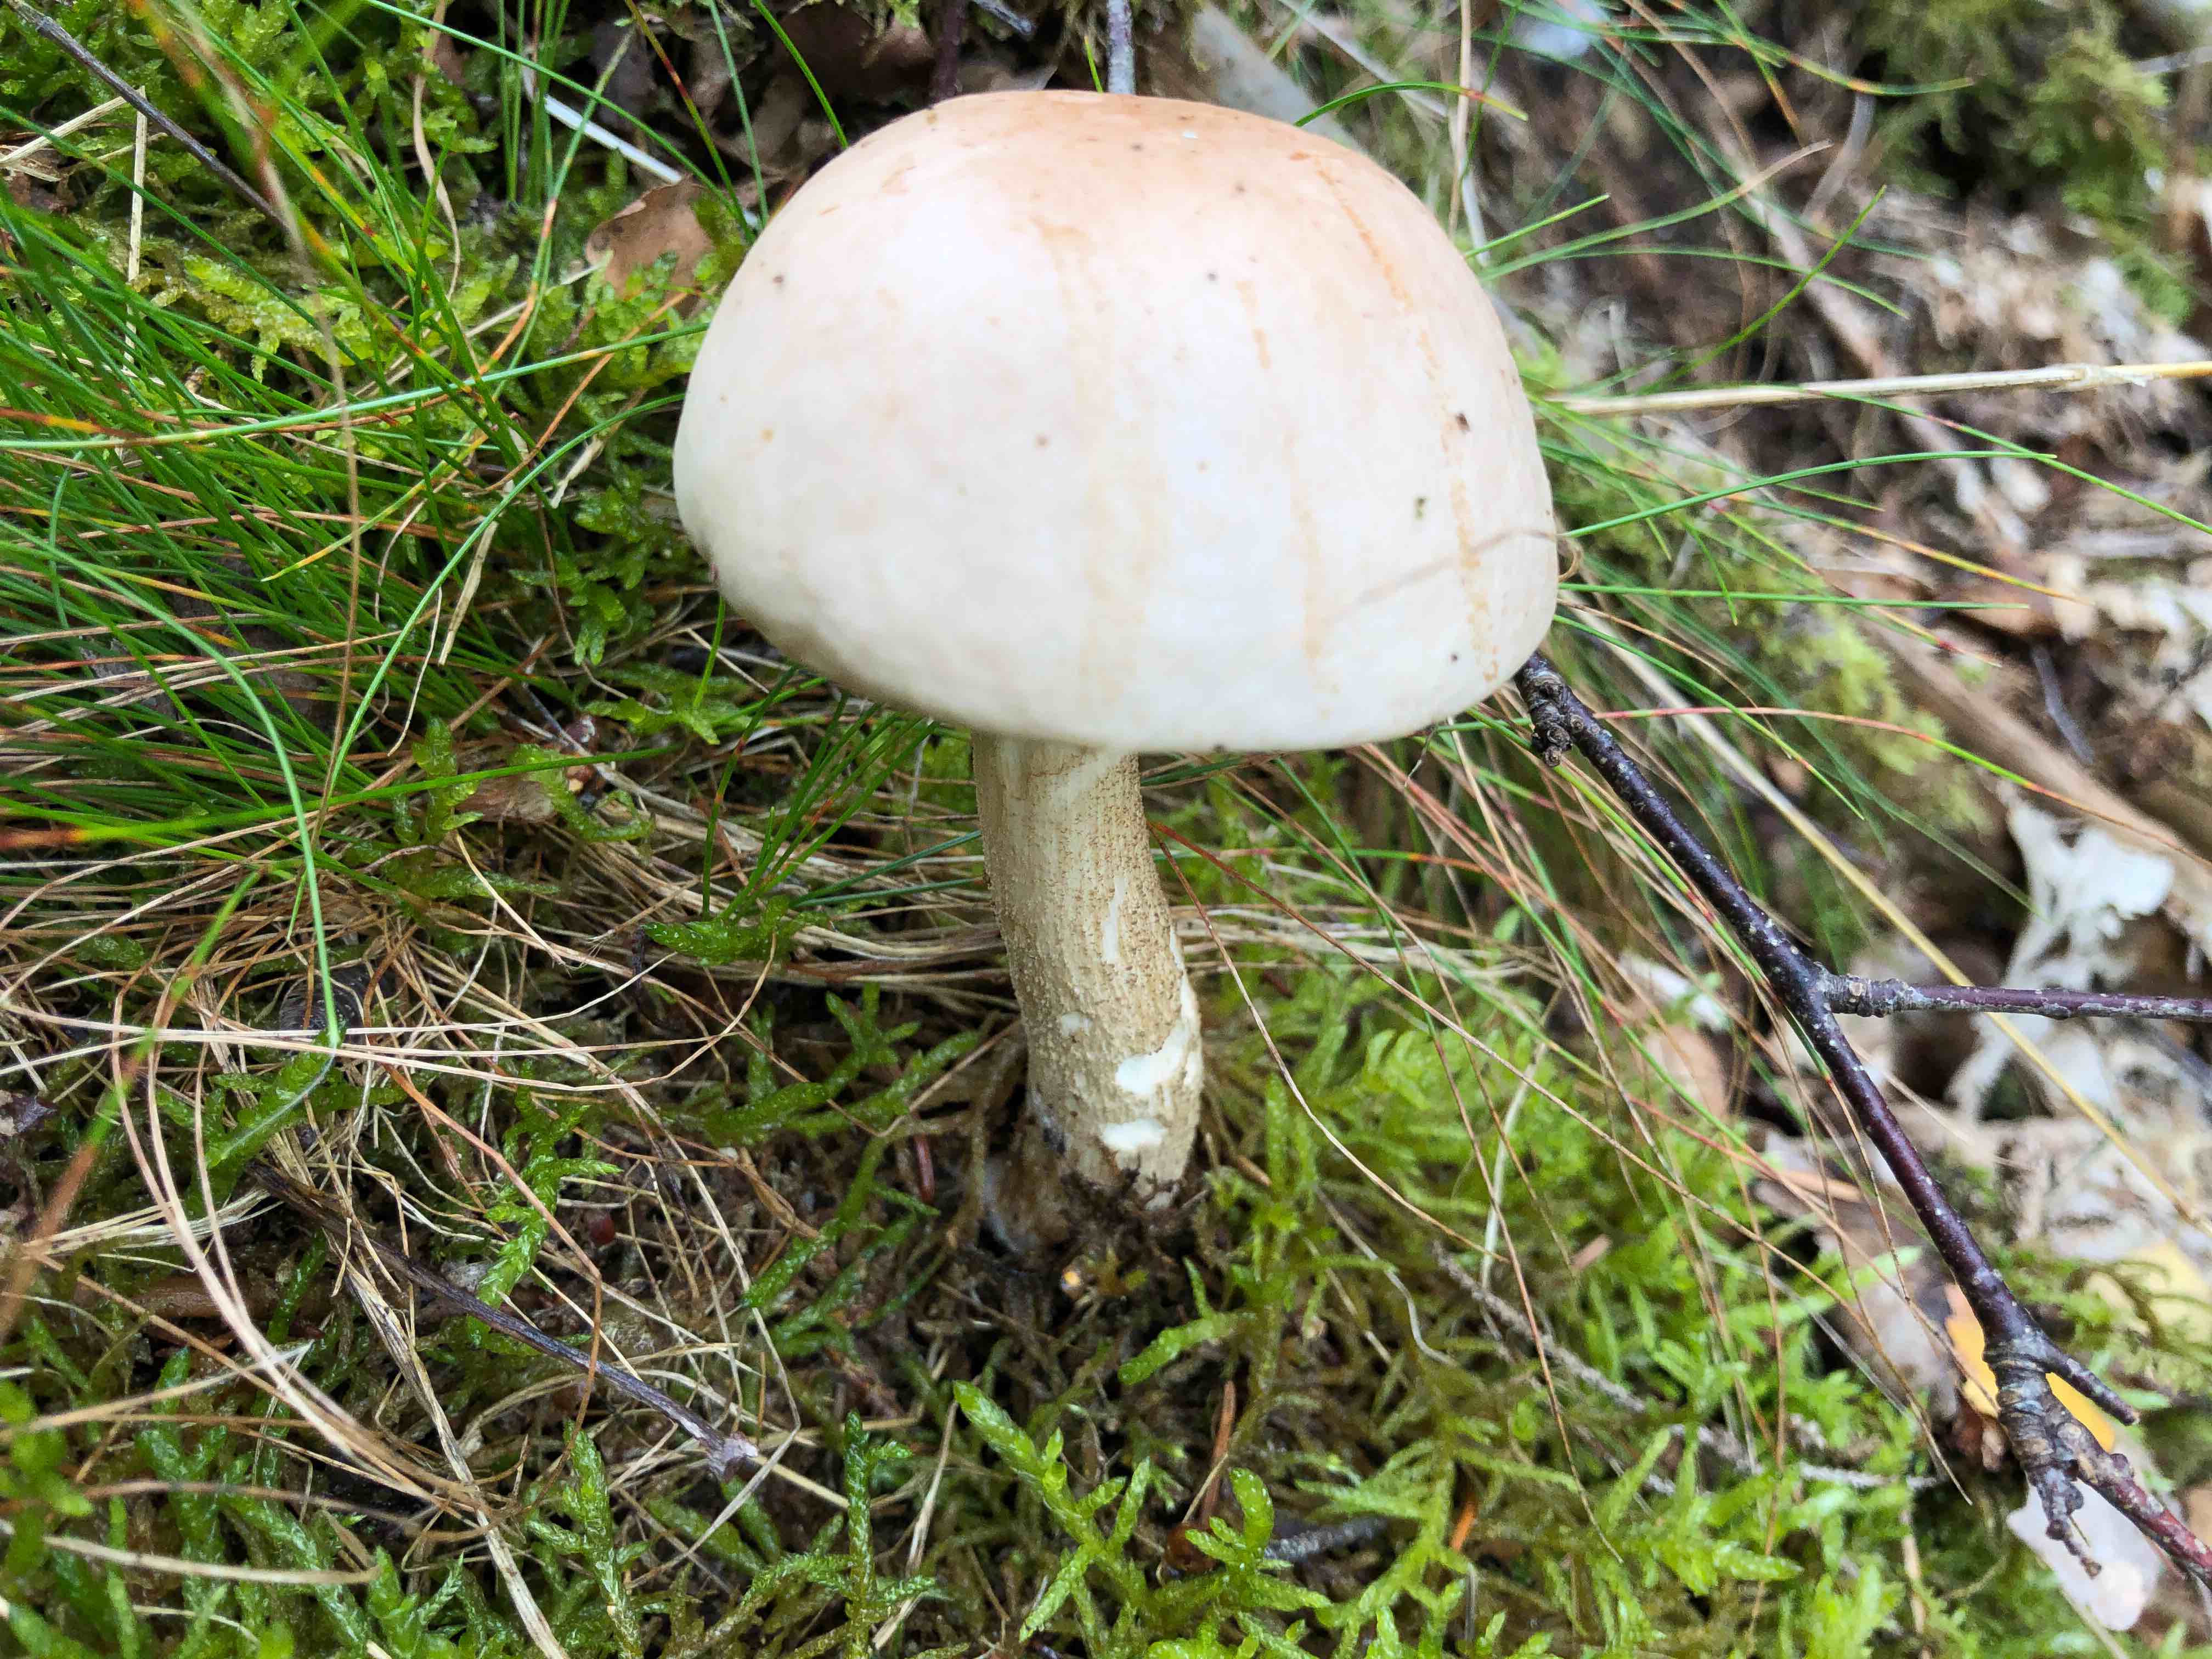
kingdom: Fungi
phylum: Basidiomycota
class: Agaricomycetes
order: Boletales
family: Boletaceae
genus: Leccinum
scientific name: Leccinum
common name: skælrørhat
